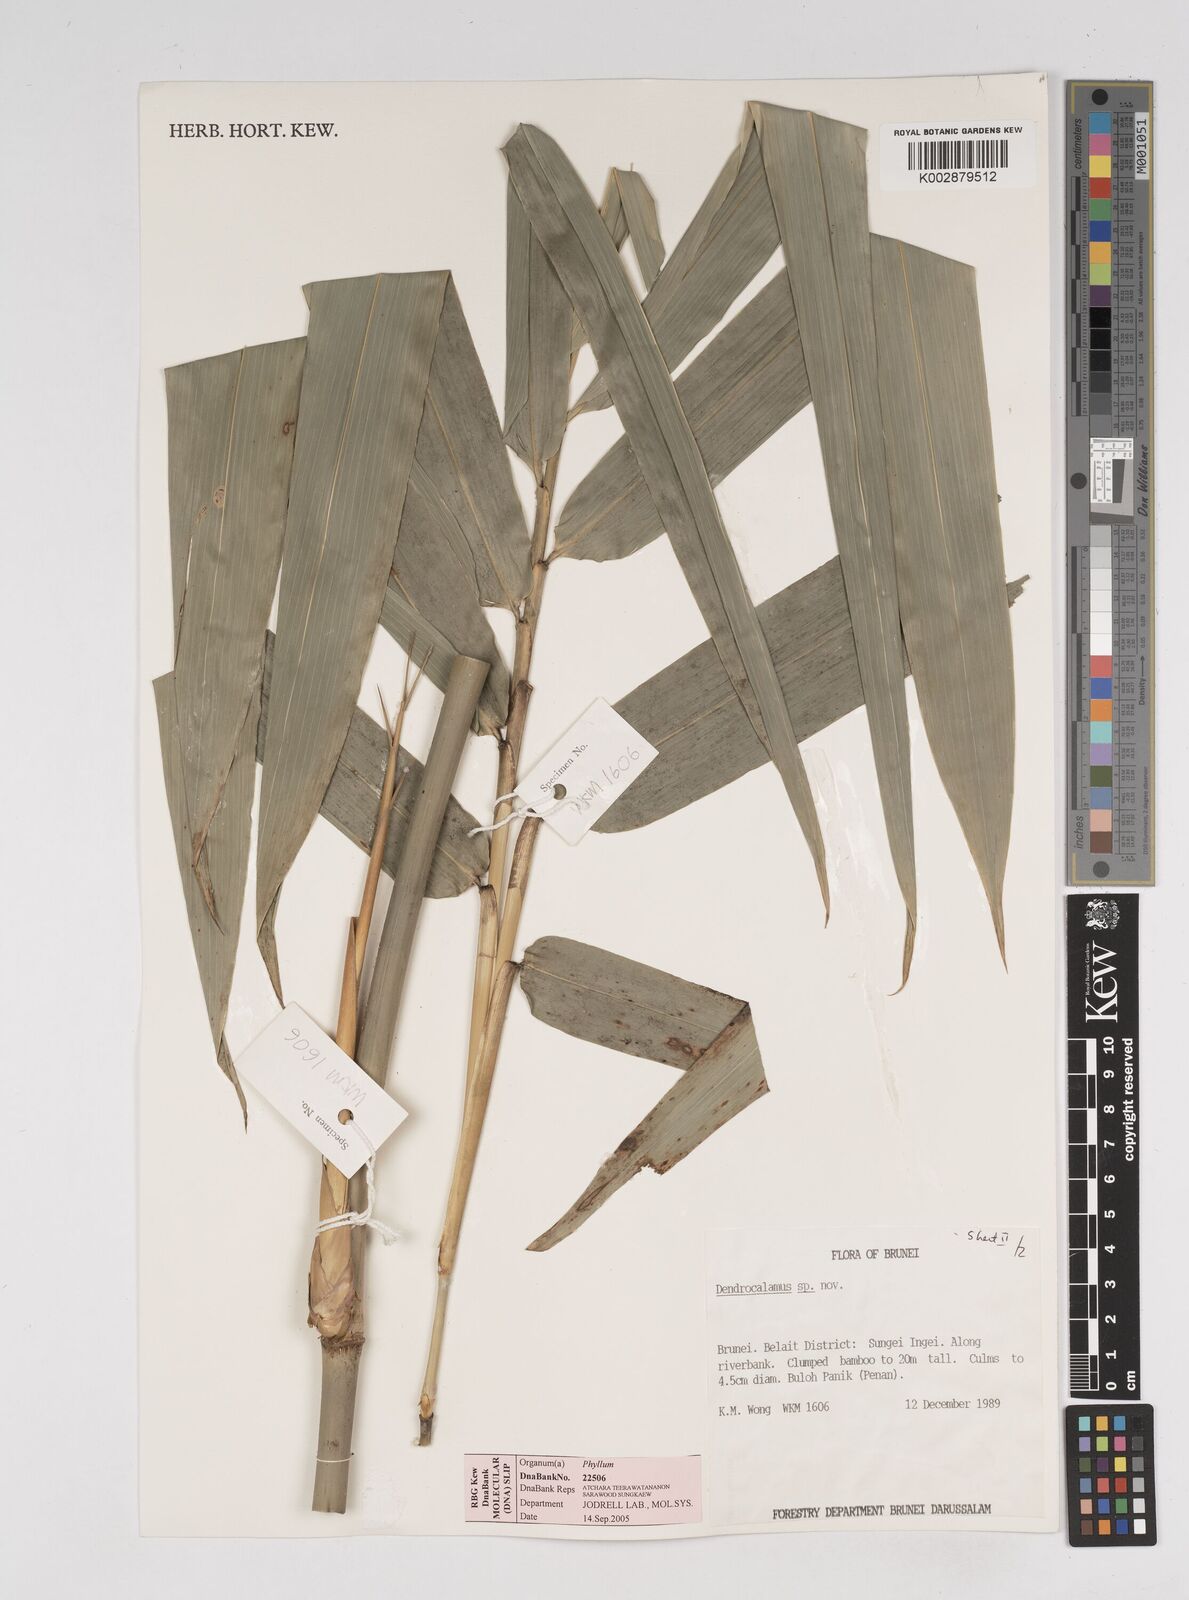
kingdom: Plantae
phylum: Tracheophyta
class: Liliopsida
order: Poales
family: Poaceae
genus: Dendrocalamus
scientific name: Dendrocalamus
